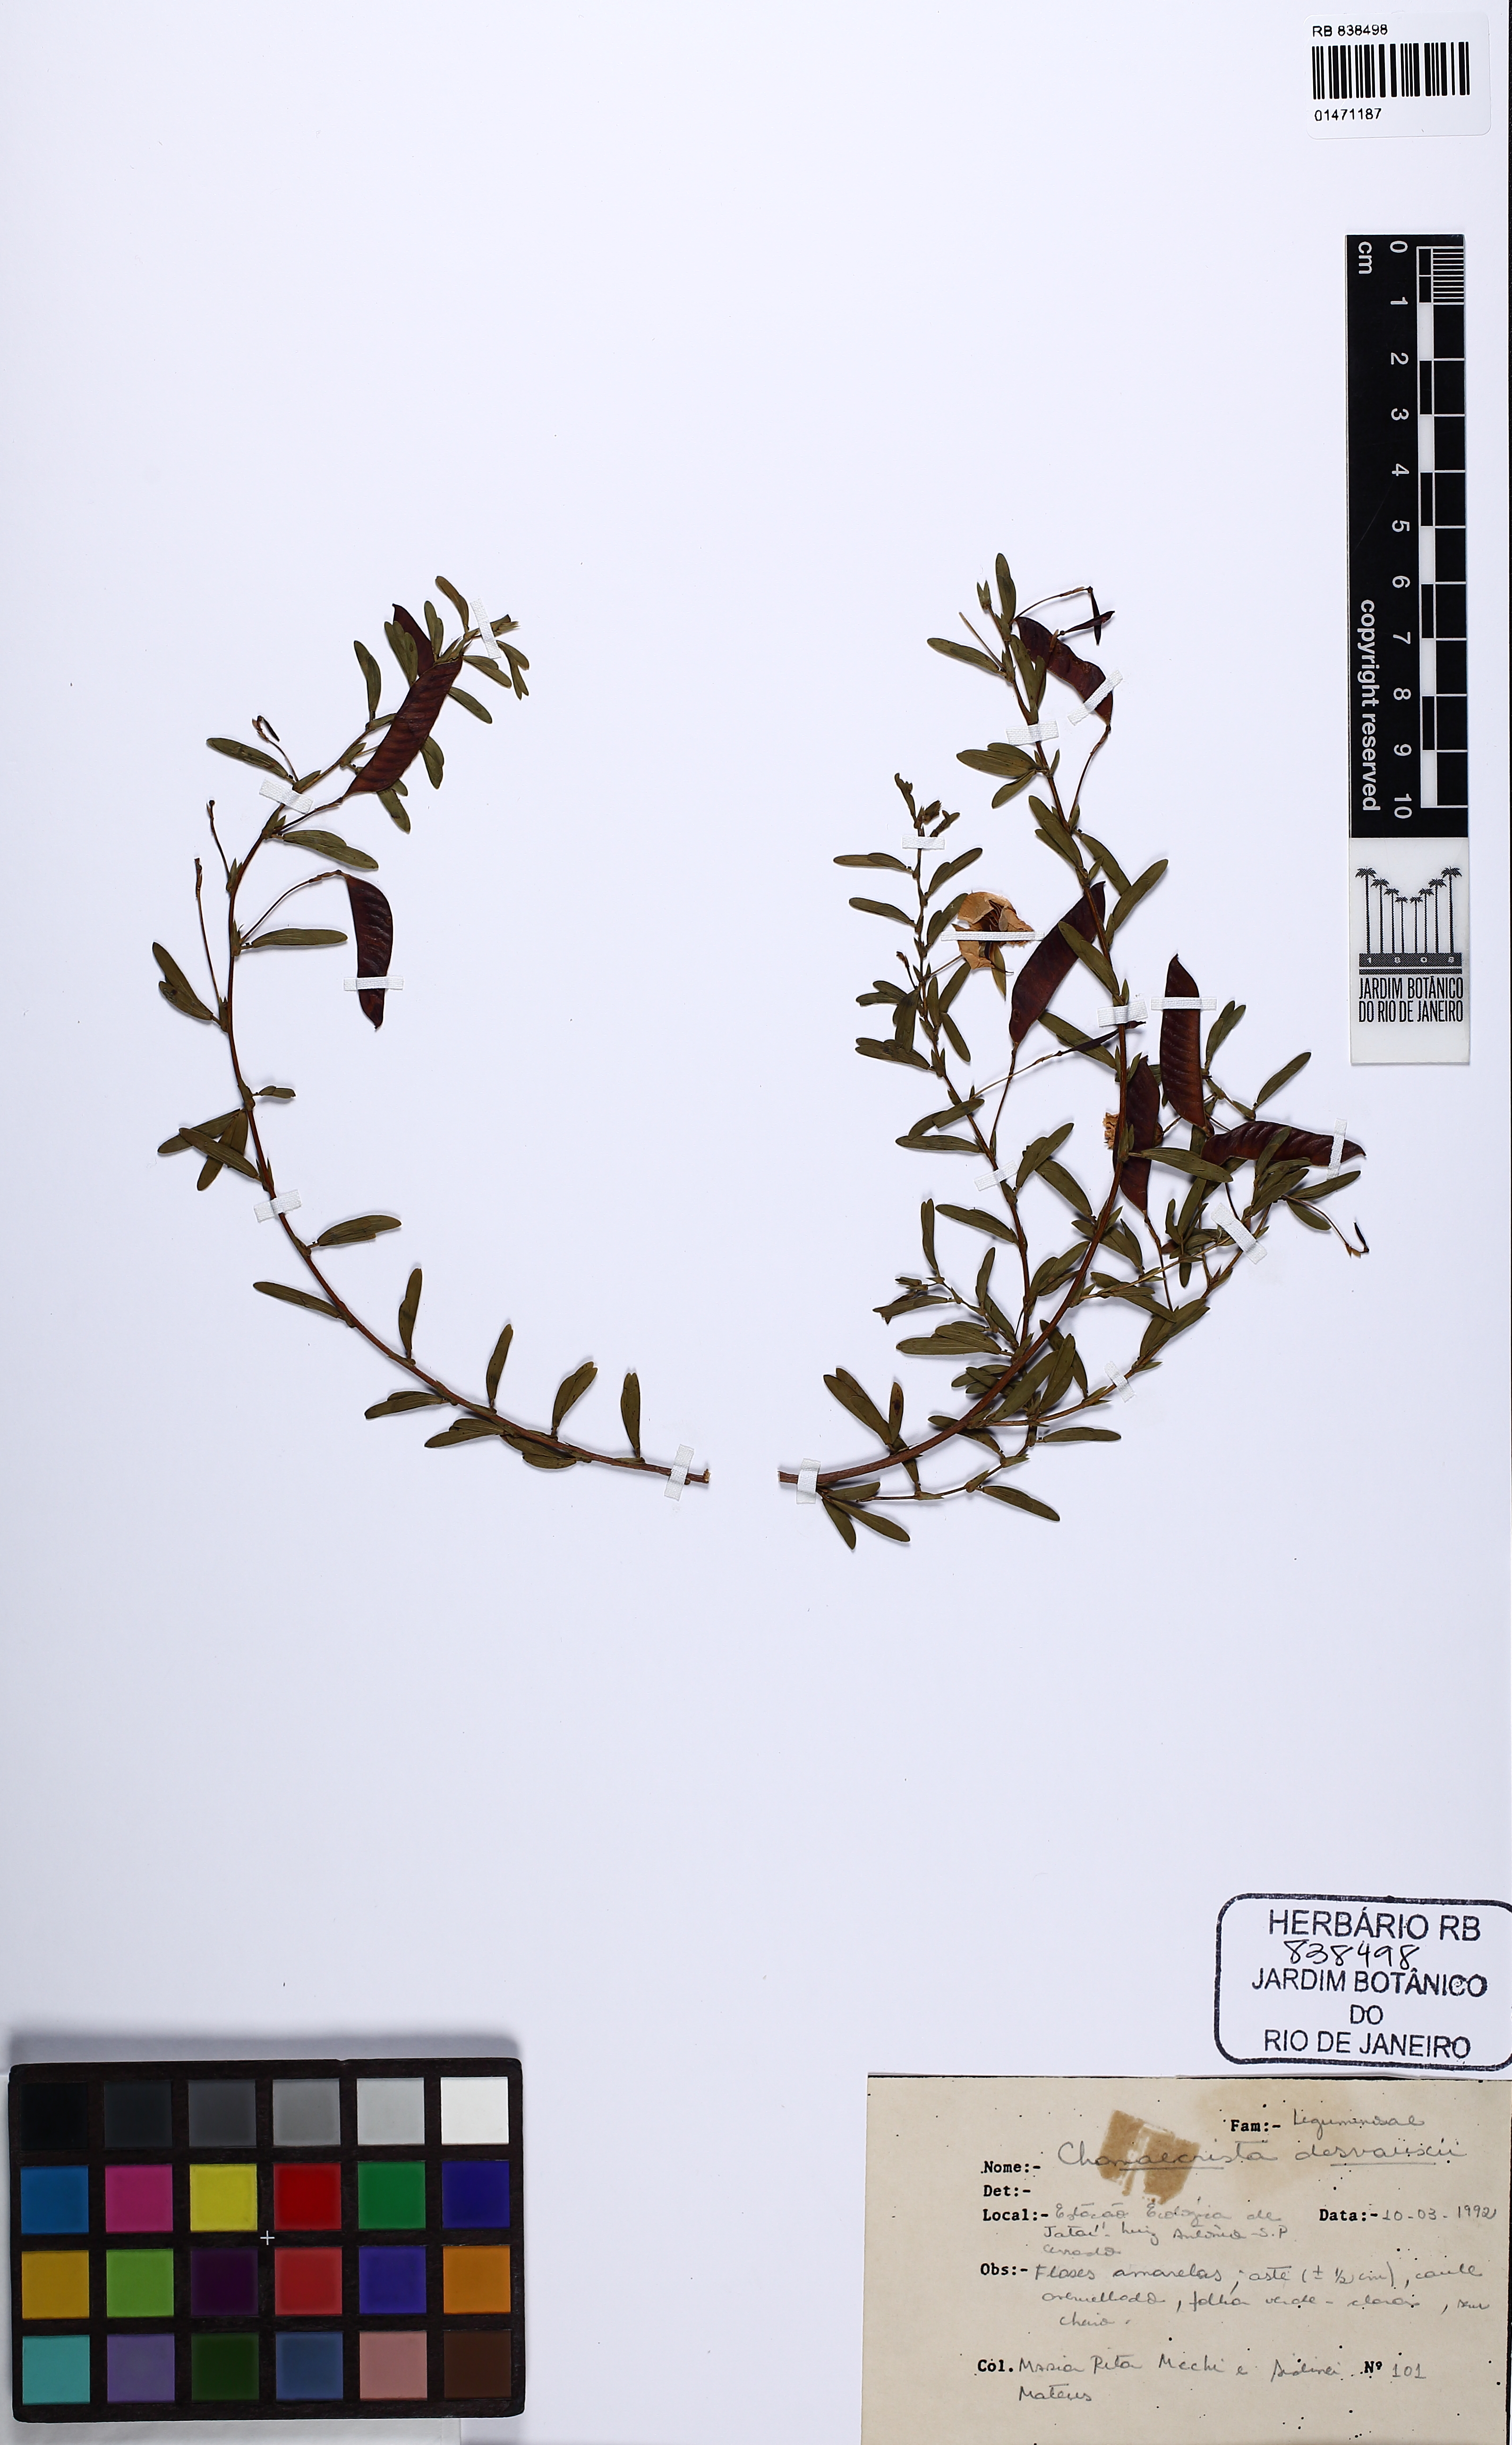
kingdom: Plantae
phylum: Tracheophyta
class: Magnoliopsida
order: Fabales
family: Fabaceae
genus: Chamaecrista
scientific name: Chamaecrista desvauxii
